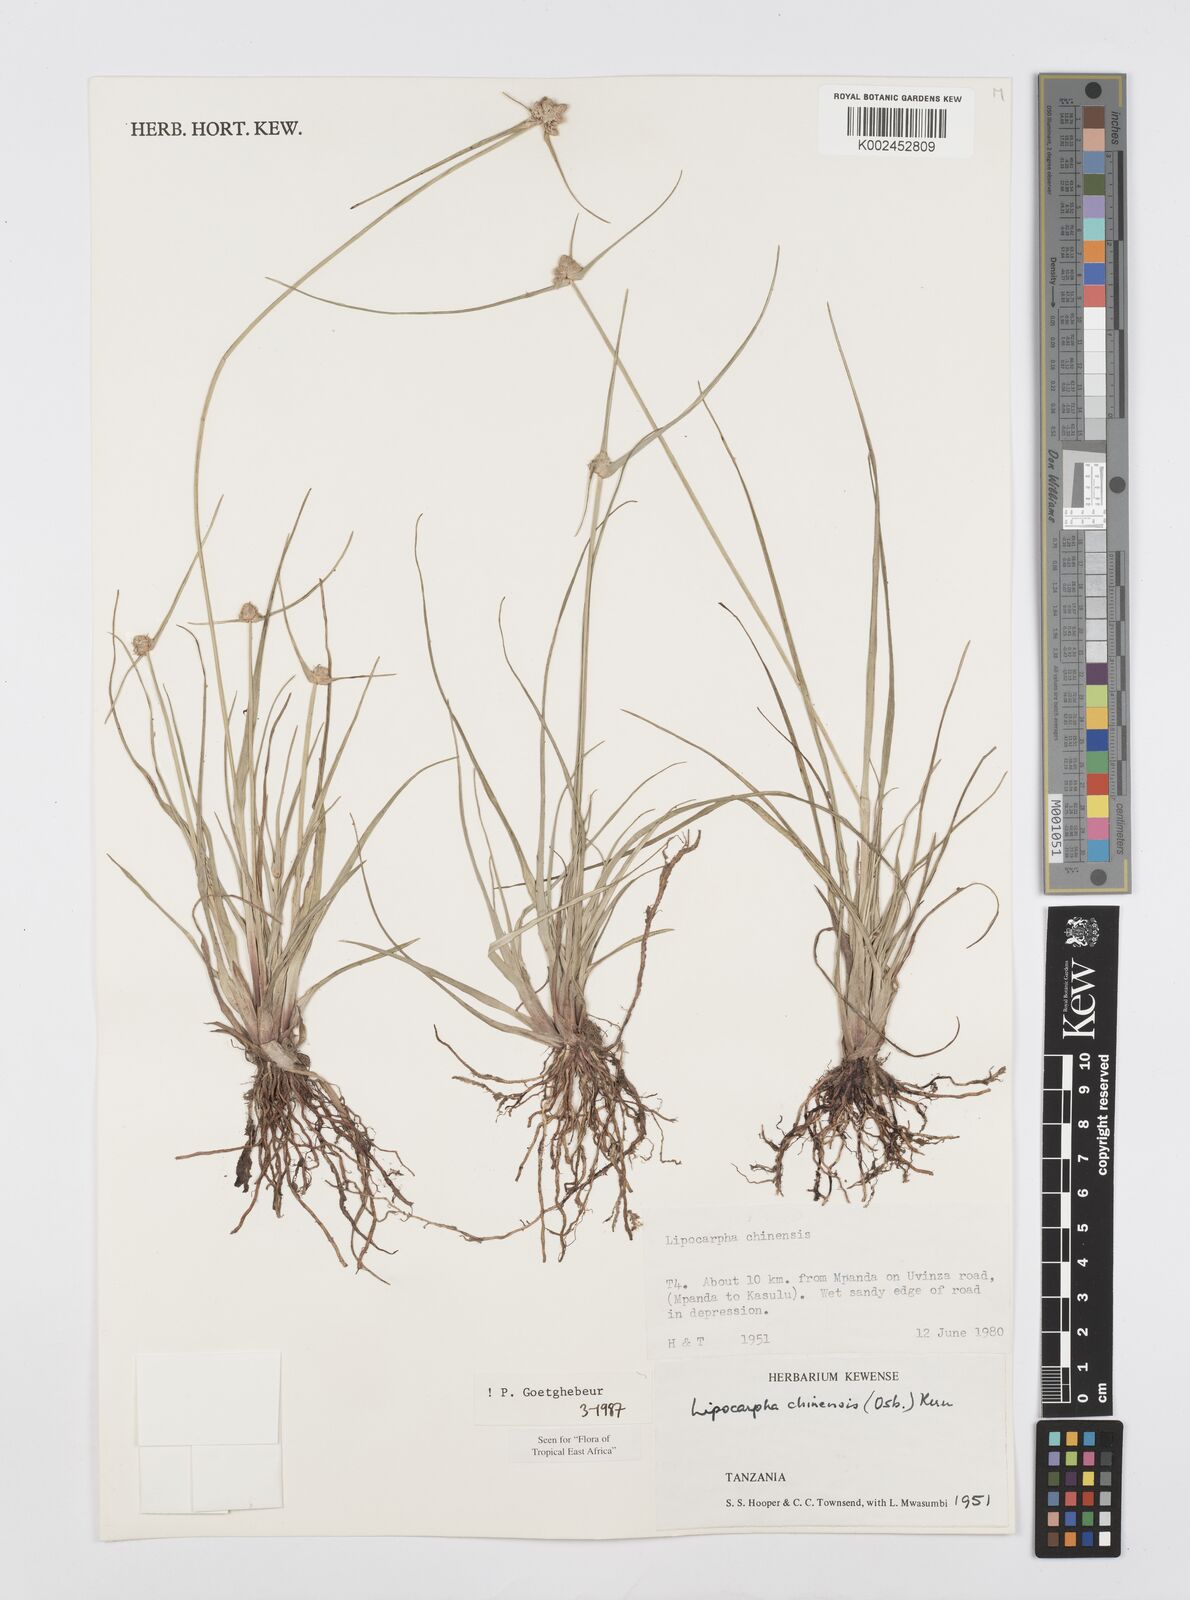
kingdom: Plantae
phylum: Tracheophyta
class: Liliopsida
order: Poales
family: Cyperaceae
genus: Cyperus
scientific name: Cyperus albescens
